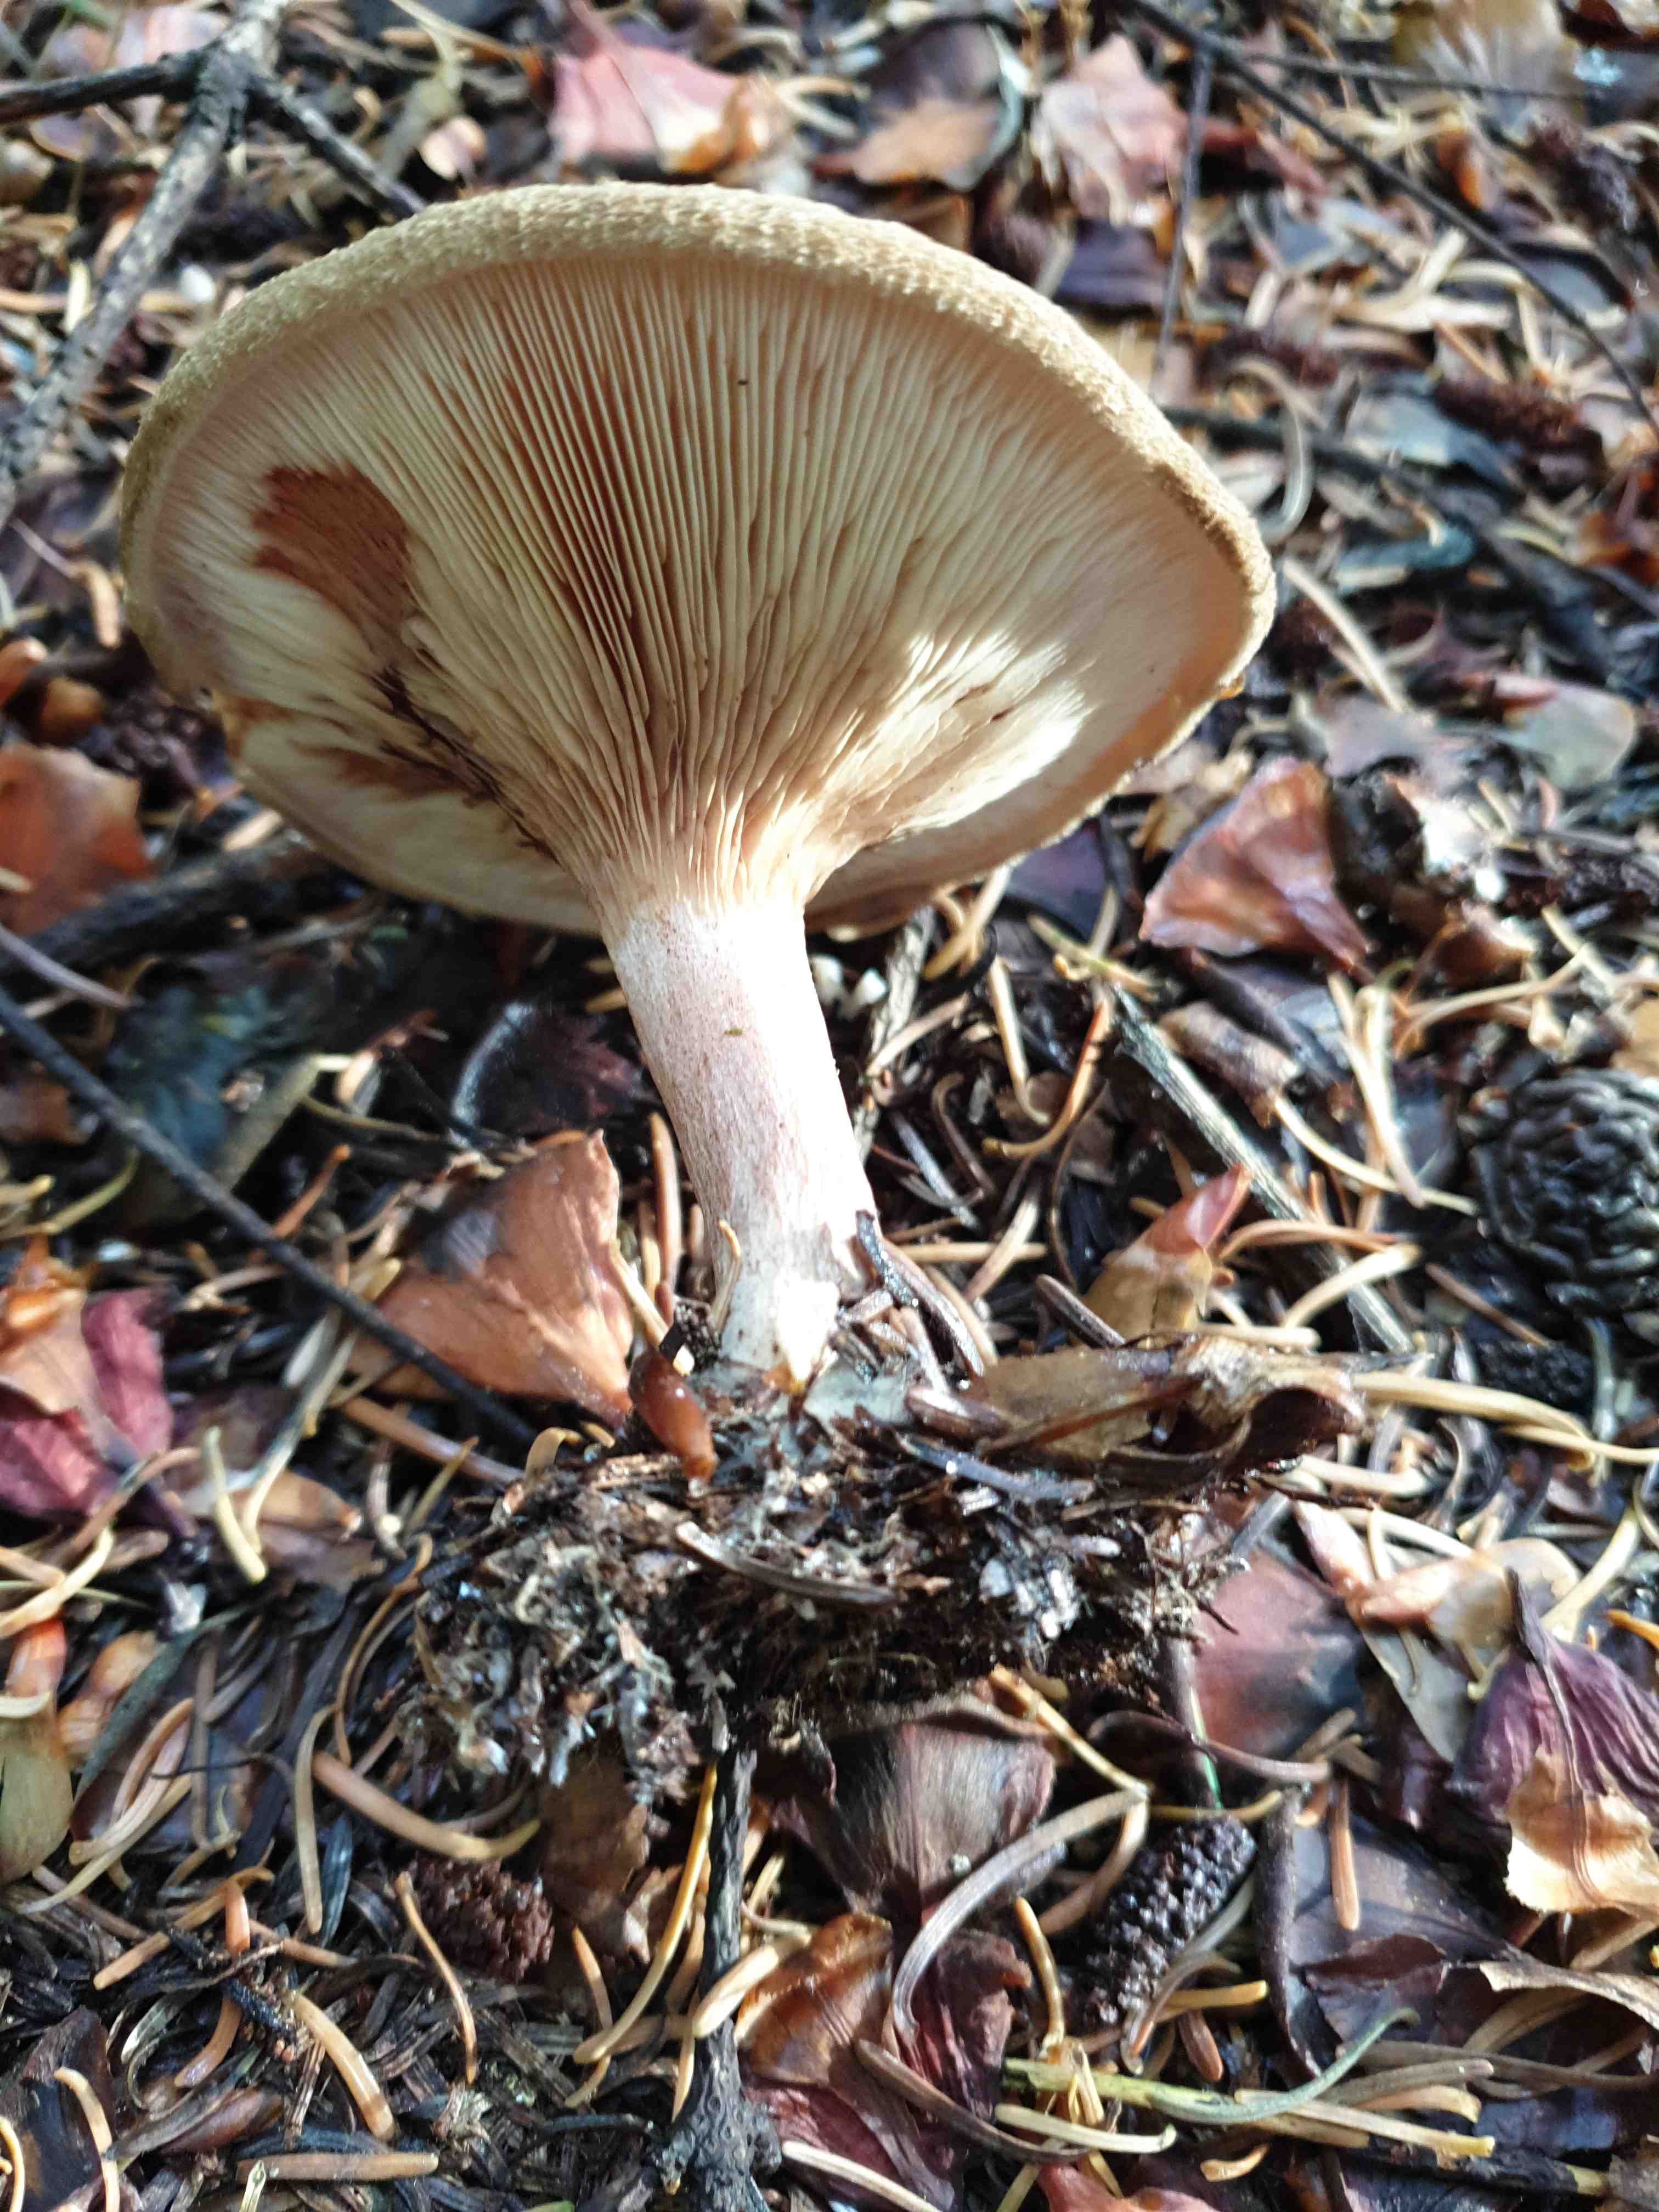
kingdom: Fungi
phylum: Basidiomycota
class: Agaricomycetes
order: Boletales
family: Paxillaceae
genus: Paxillus
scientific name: Paxillus involutus
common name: almindelig netbladhat
